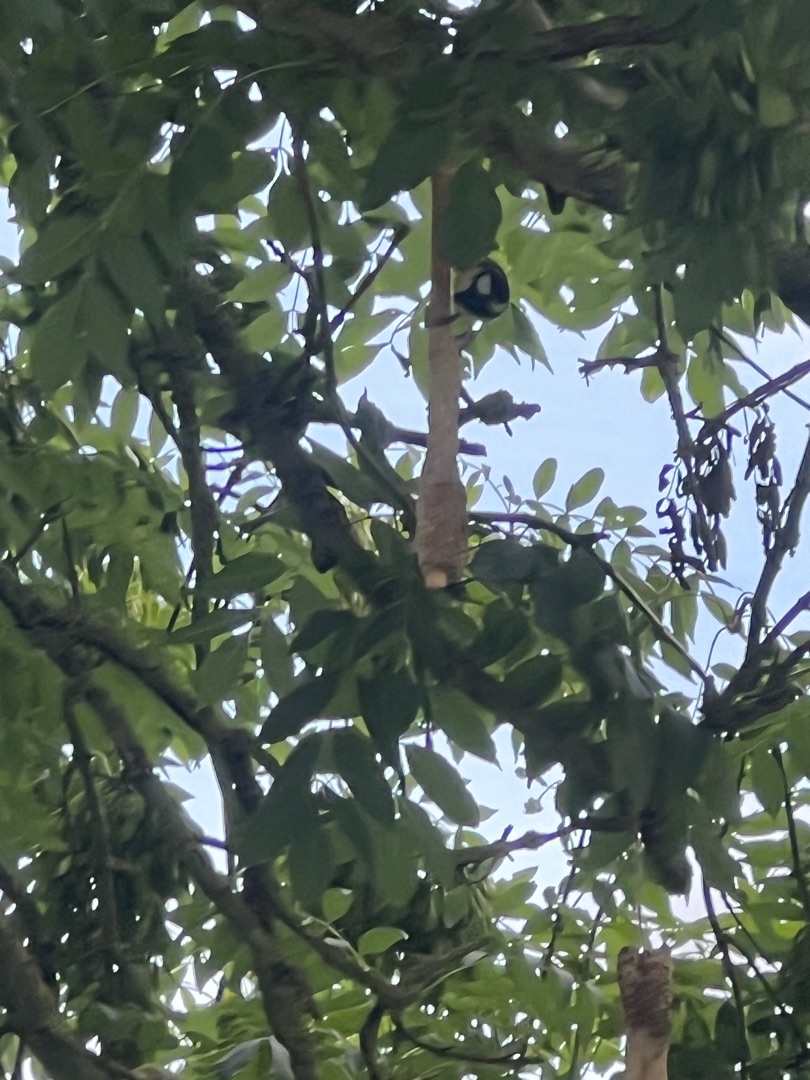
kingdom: Animalia
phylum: Chordata
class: Aves
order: Passeriformes
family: Paridae
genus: Parus
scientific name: Parus major
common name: Musvit
